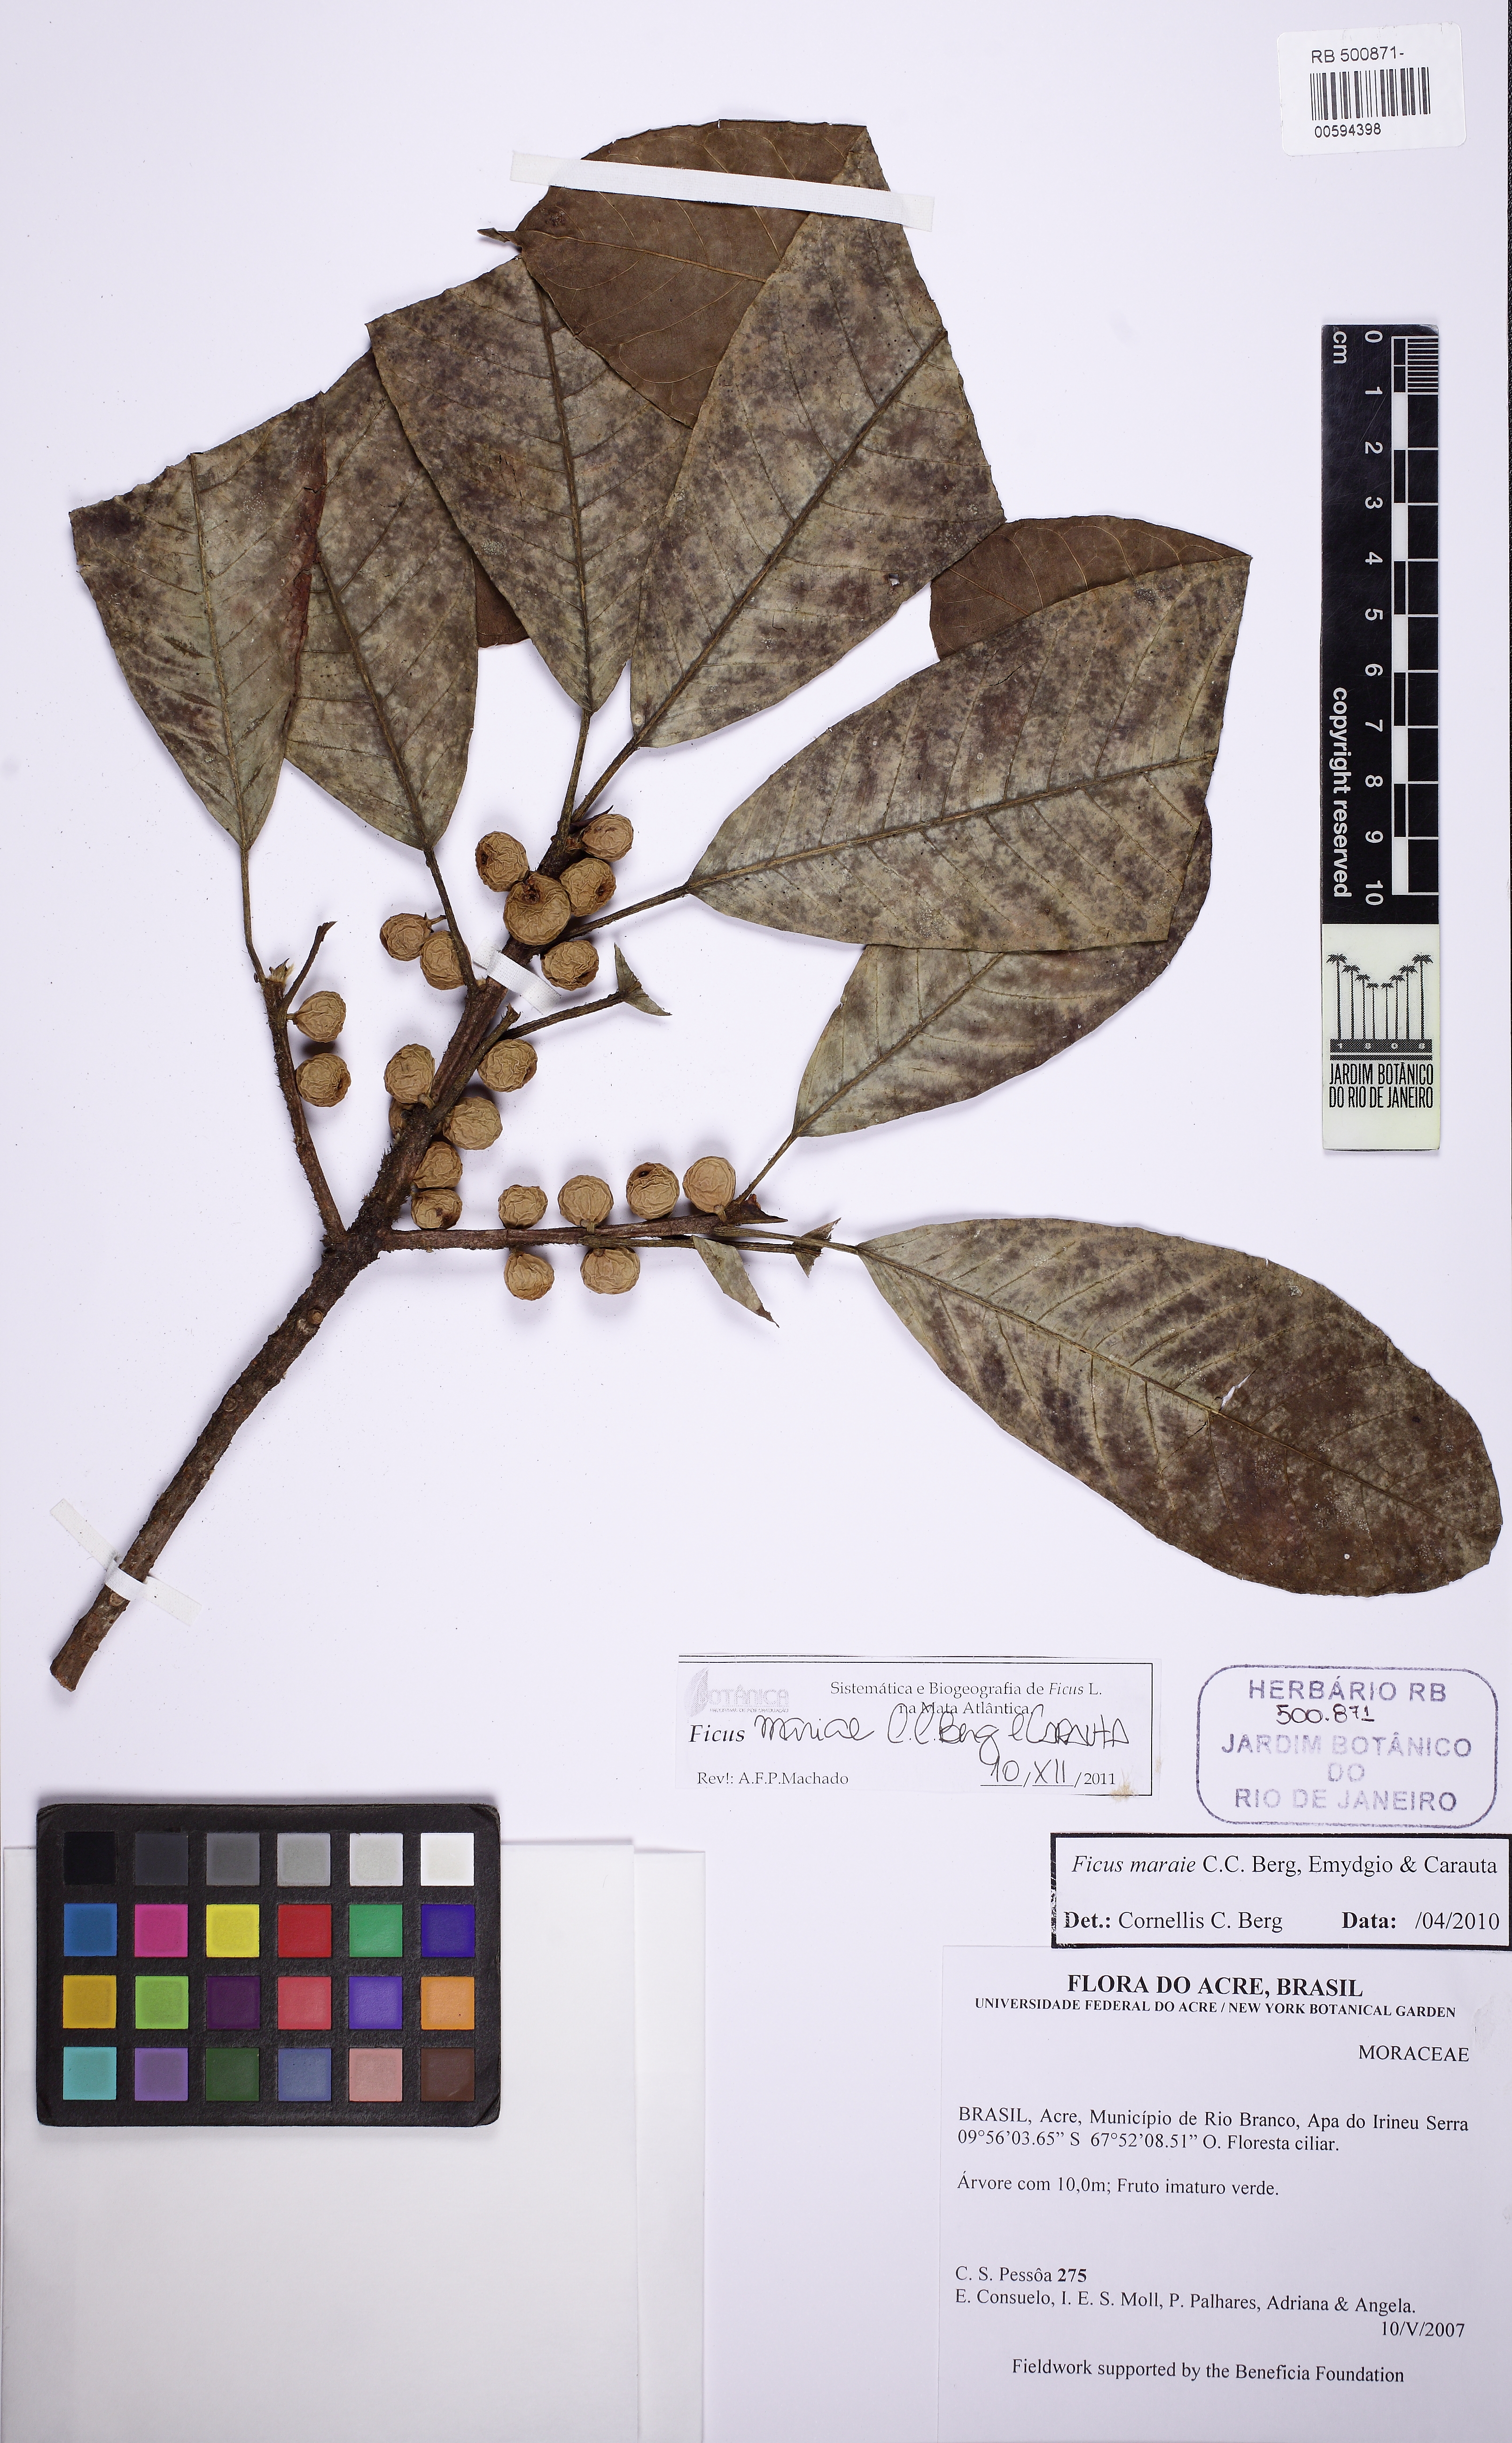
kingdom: Plantae
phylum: Tracheophyta
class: Magnoliopsida
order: Rosales
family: Moraceae
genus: Ficus
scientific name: Ficus mariae
